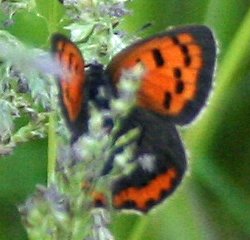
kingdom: Animalia
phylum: Arthropoda
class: Insecta
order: Lepidoptera
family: Sesiidae
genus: Sesia
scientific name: Sesia Lycaena hyllus
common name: Bronze Copper
